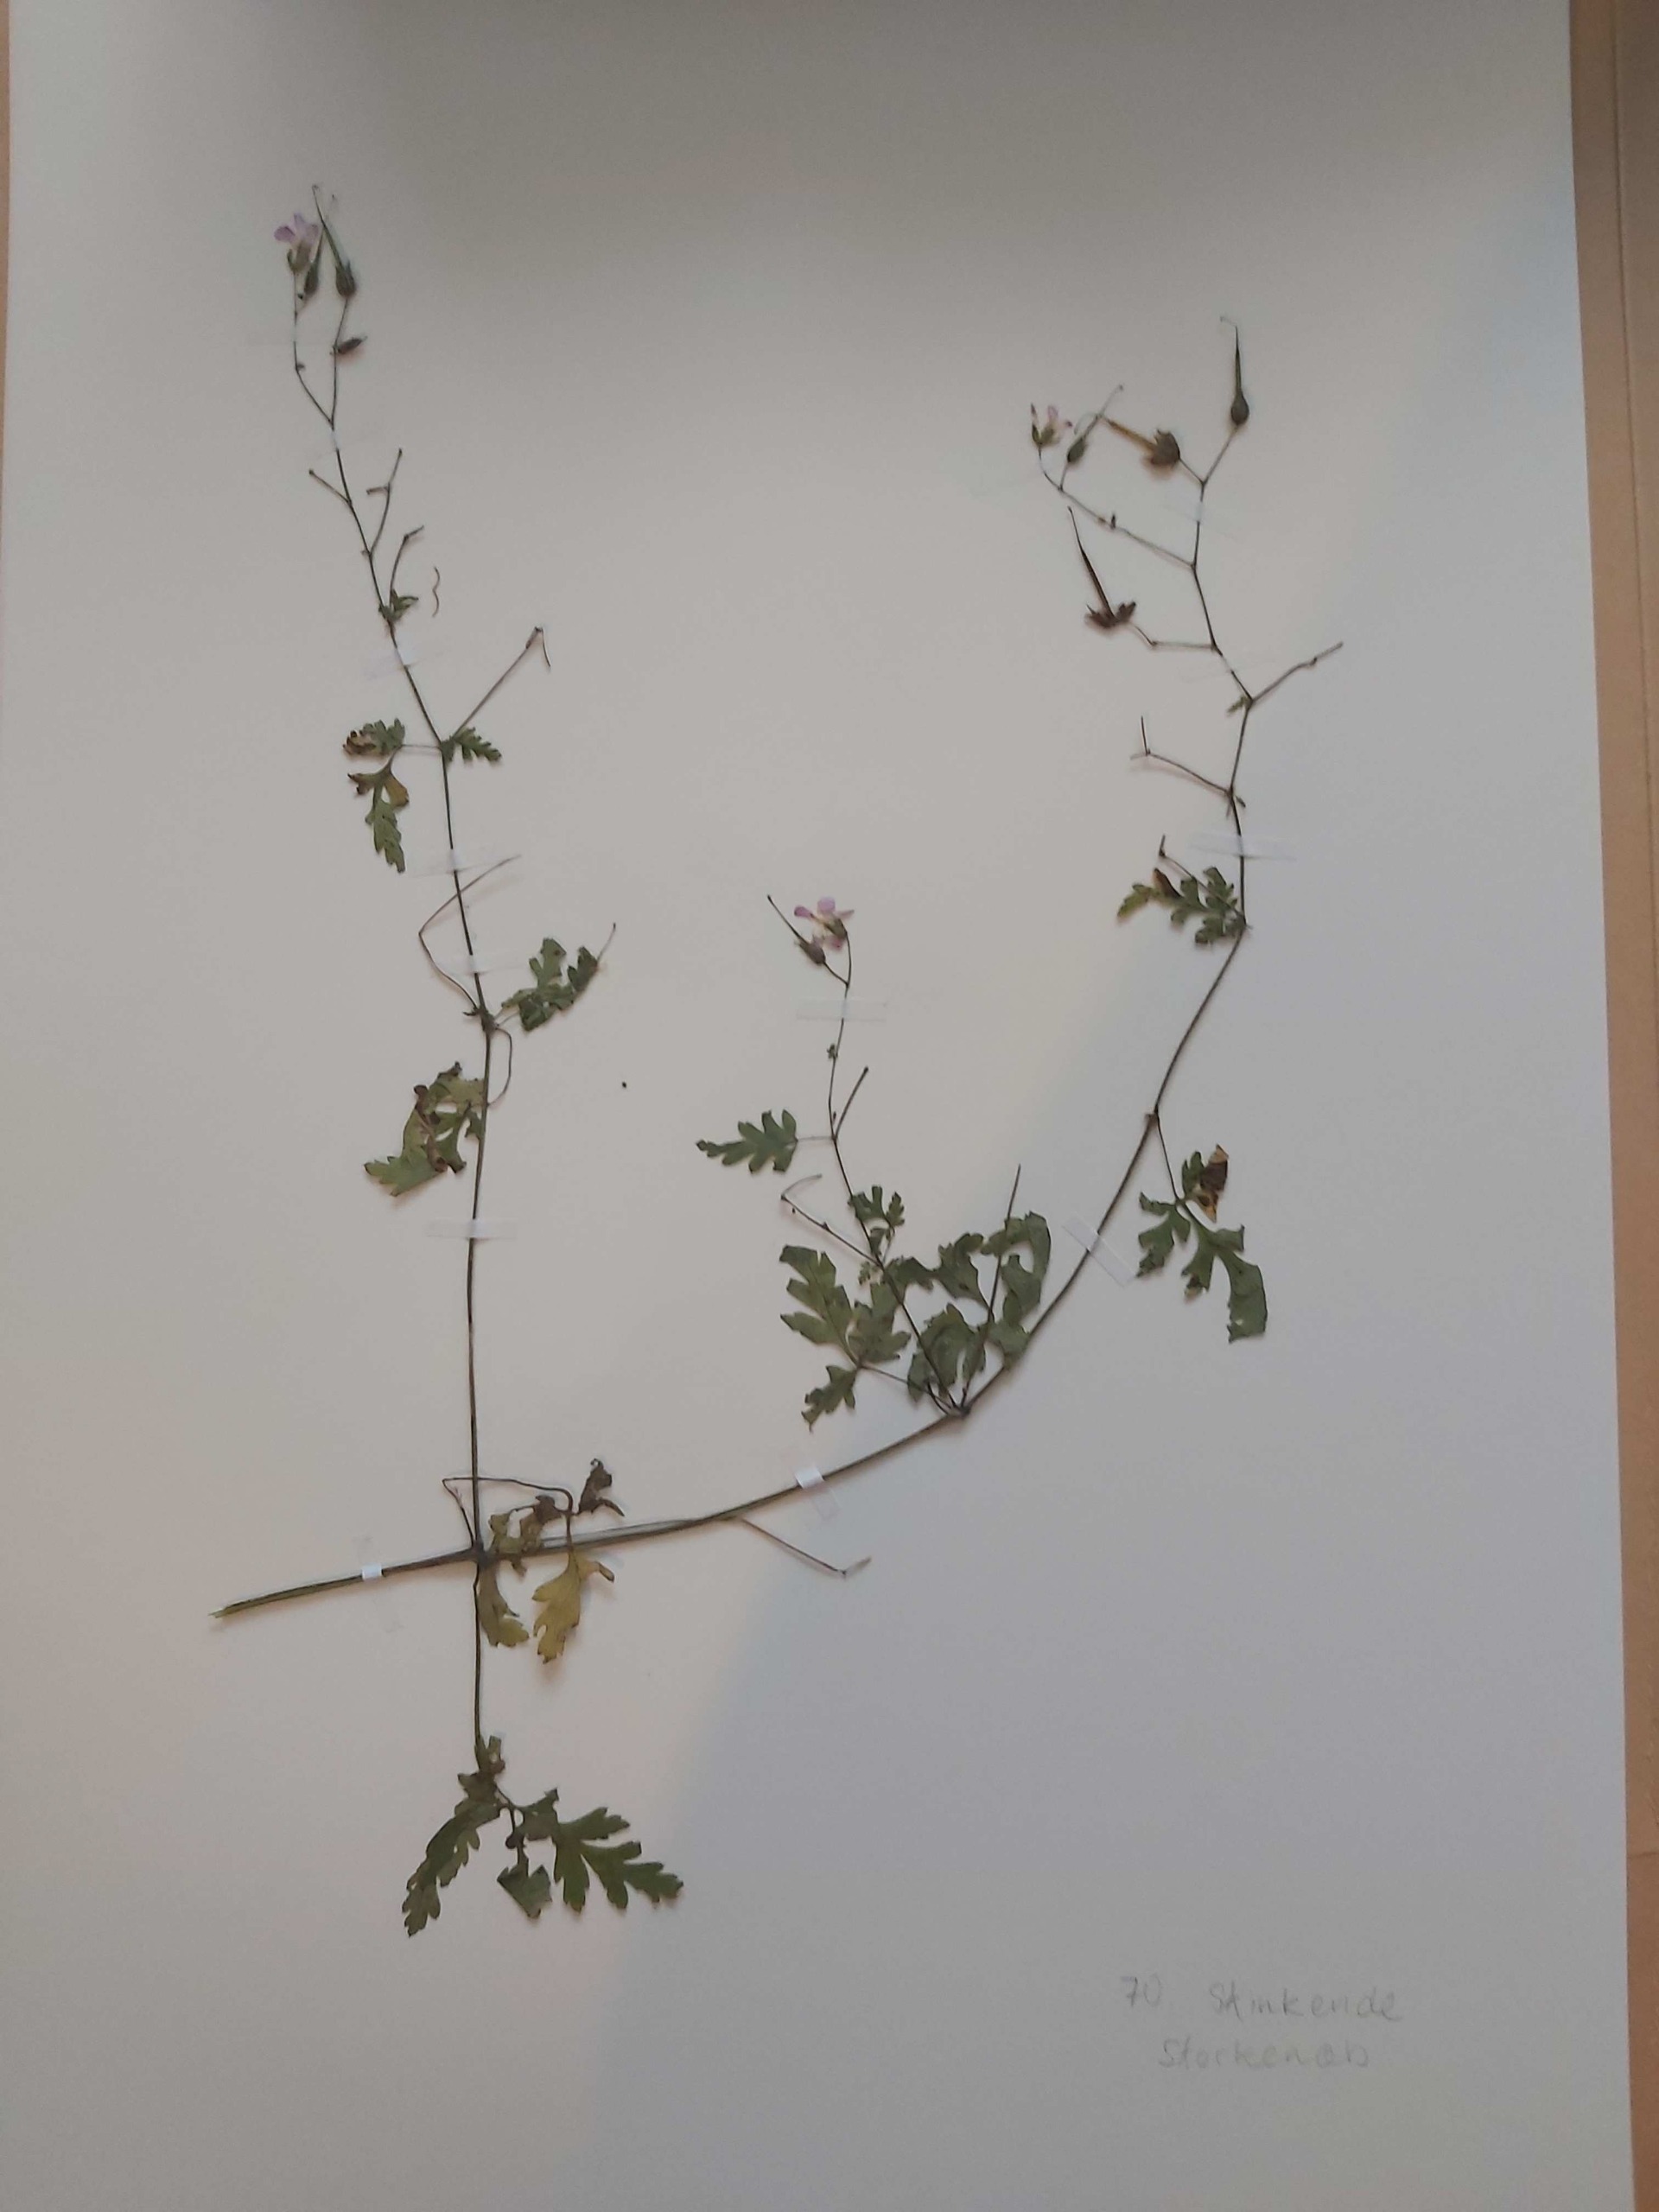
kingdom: Plantae
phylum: Tracheophyta
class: Magnoliopsida
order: Geraniales
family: Geraniaceae
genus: Geranium
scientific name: Geranium robertianum
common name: Stinkende storkenæb
